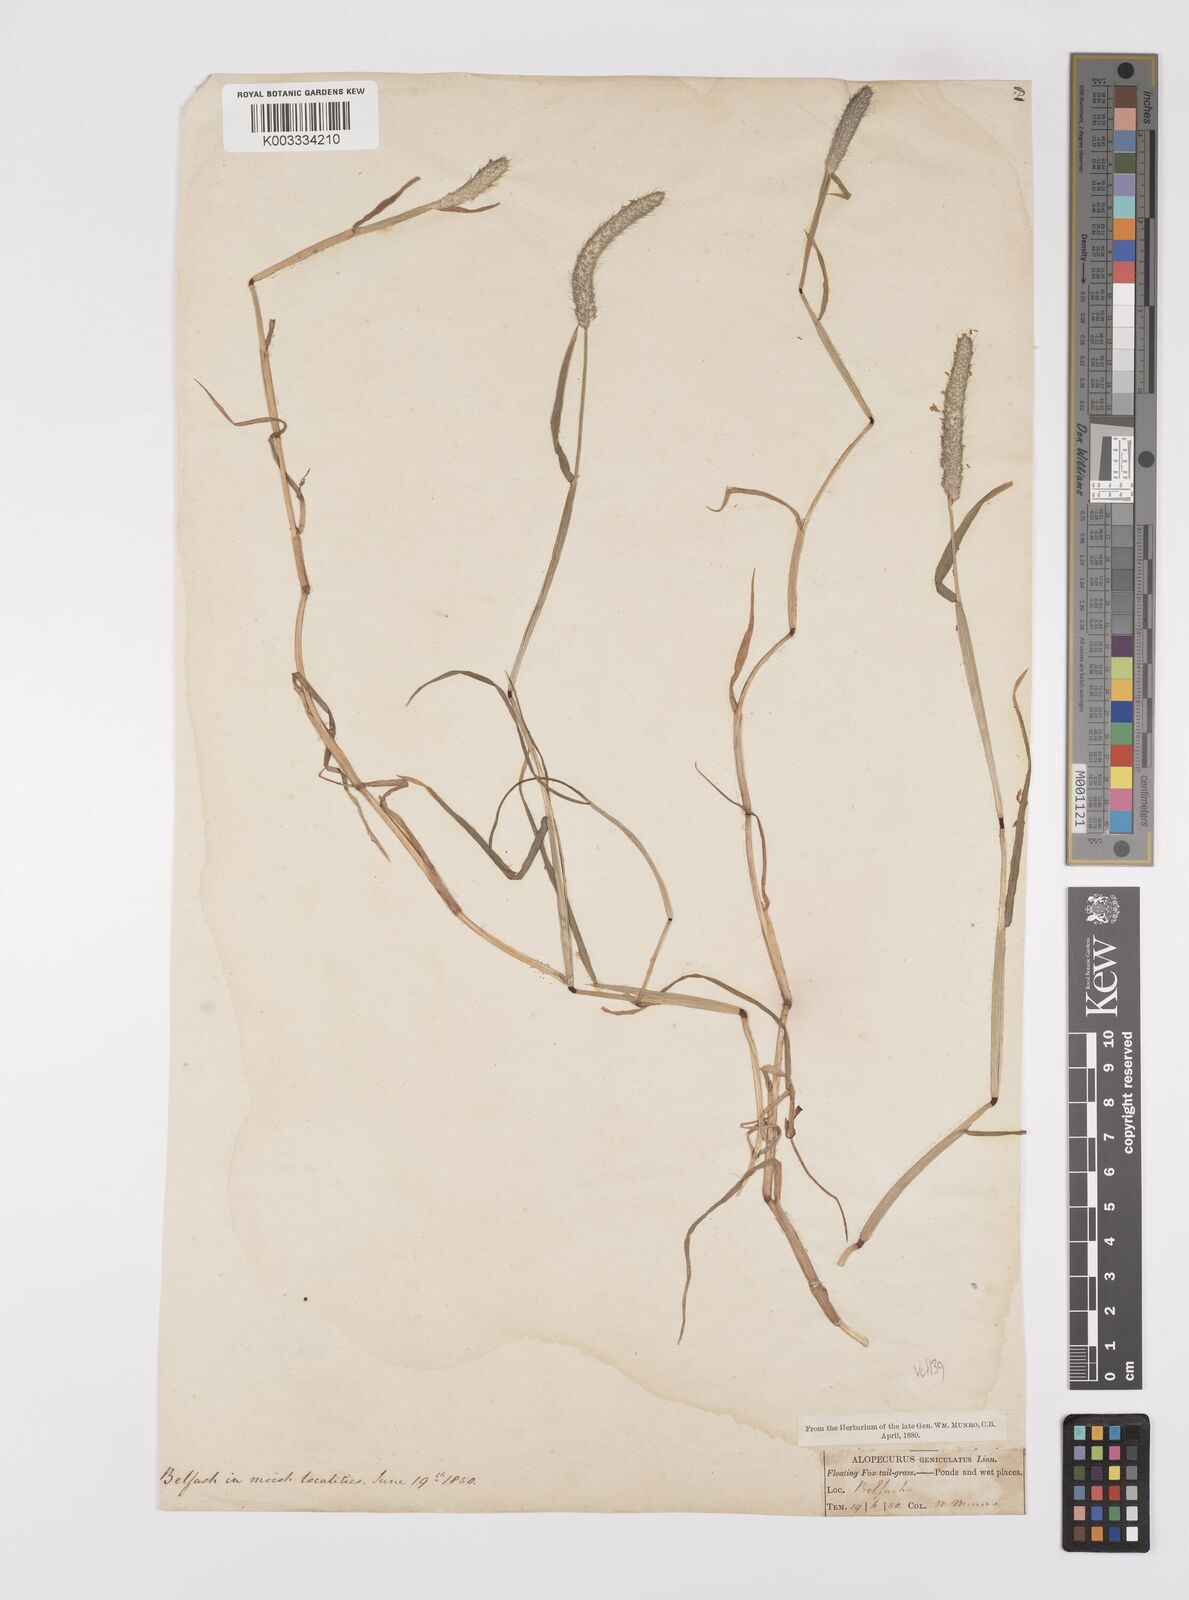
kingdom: Plantae
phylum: Tracheophyta
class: Liliopsida
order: Poales
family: Poaceae
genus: Alopecurus
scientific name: Alopecurus geniculatus
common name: Water foxtail
